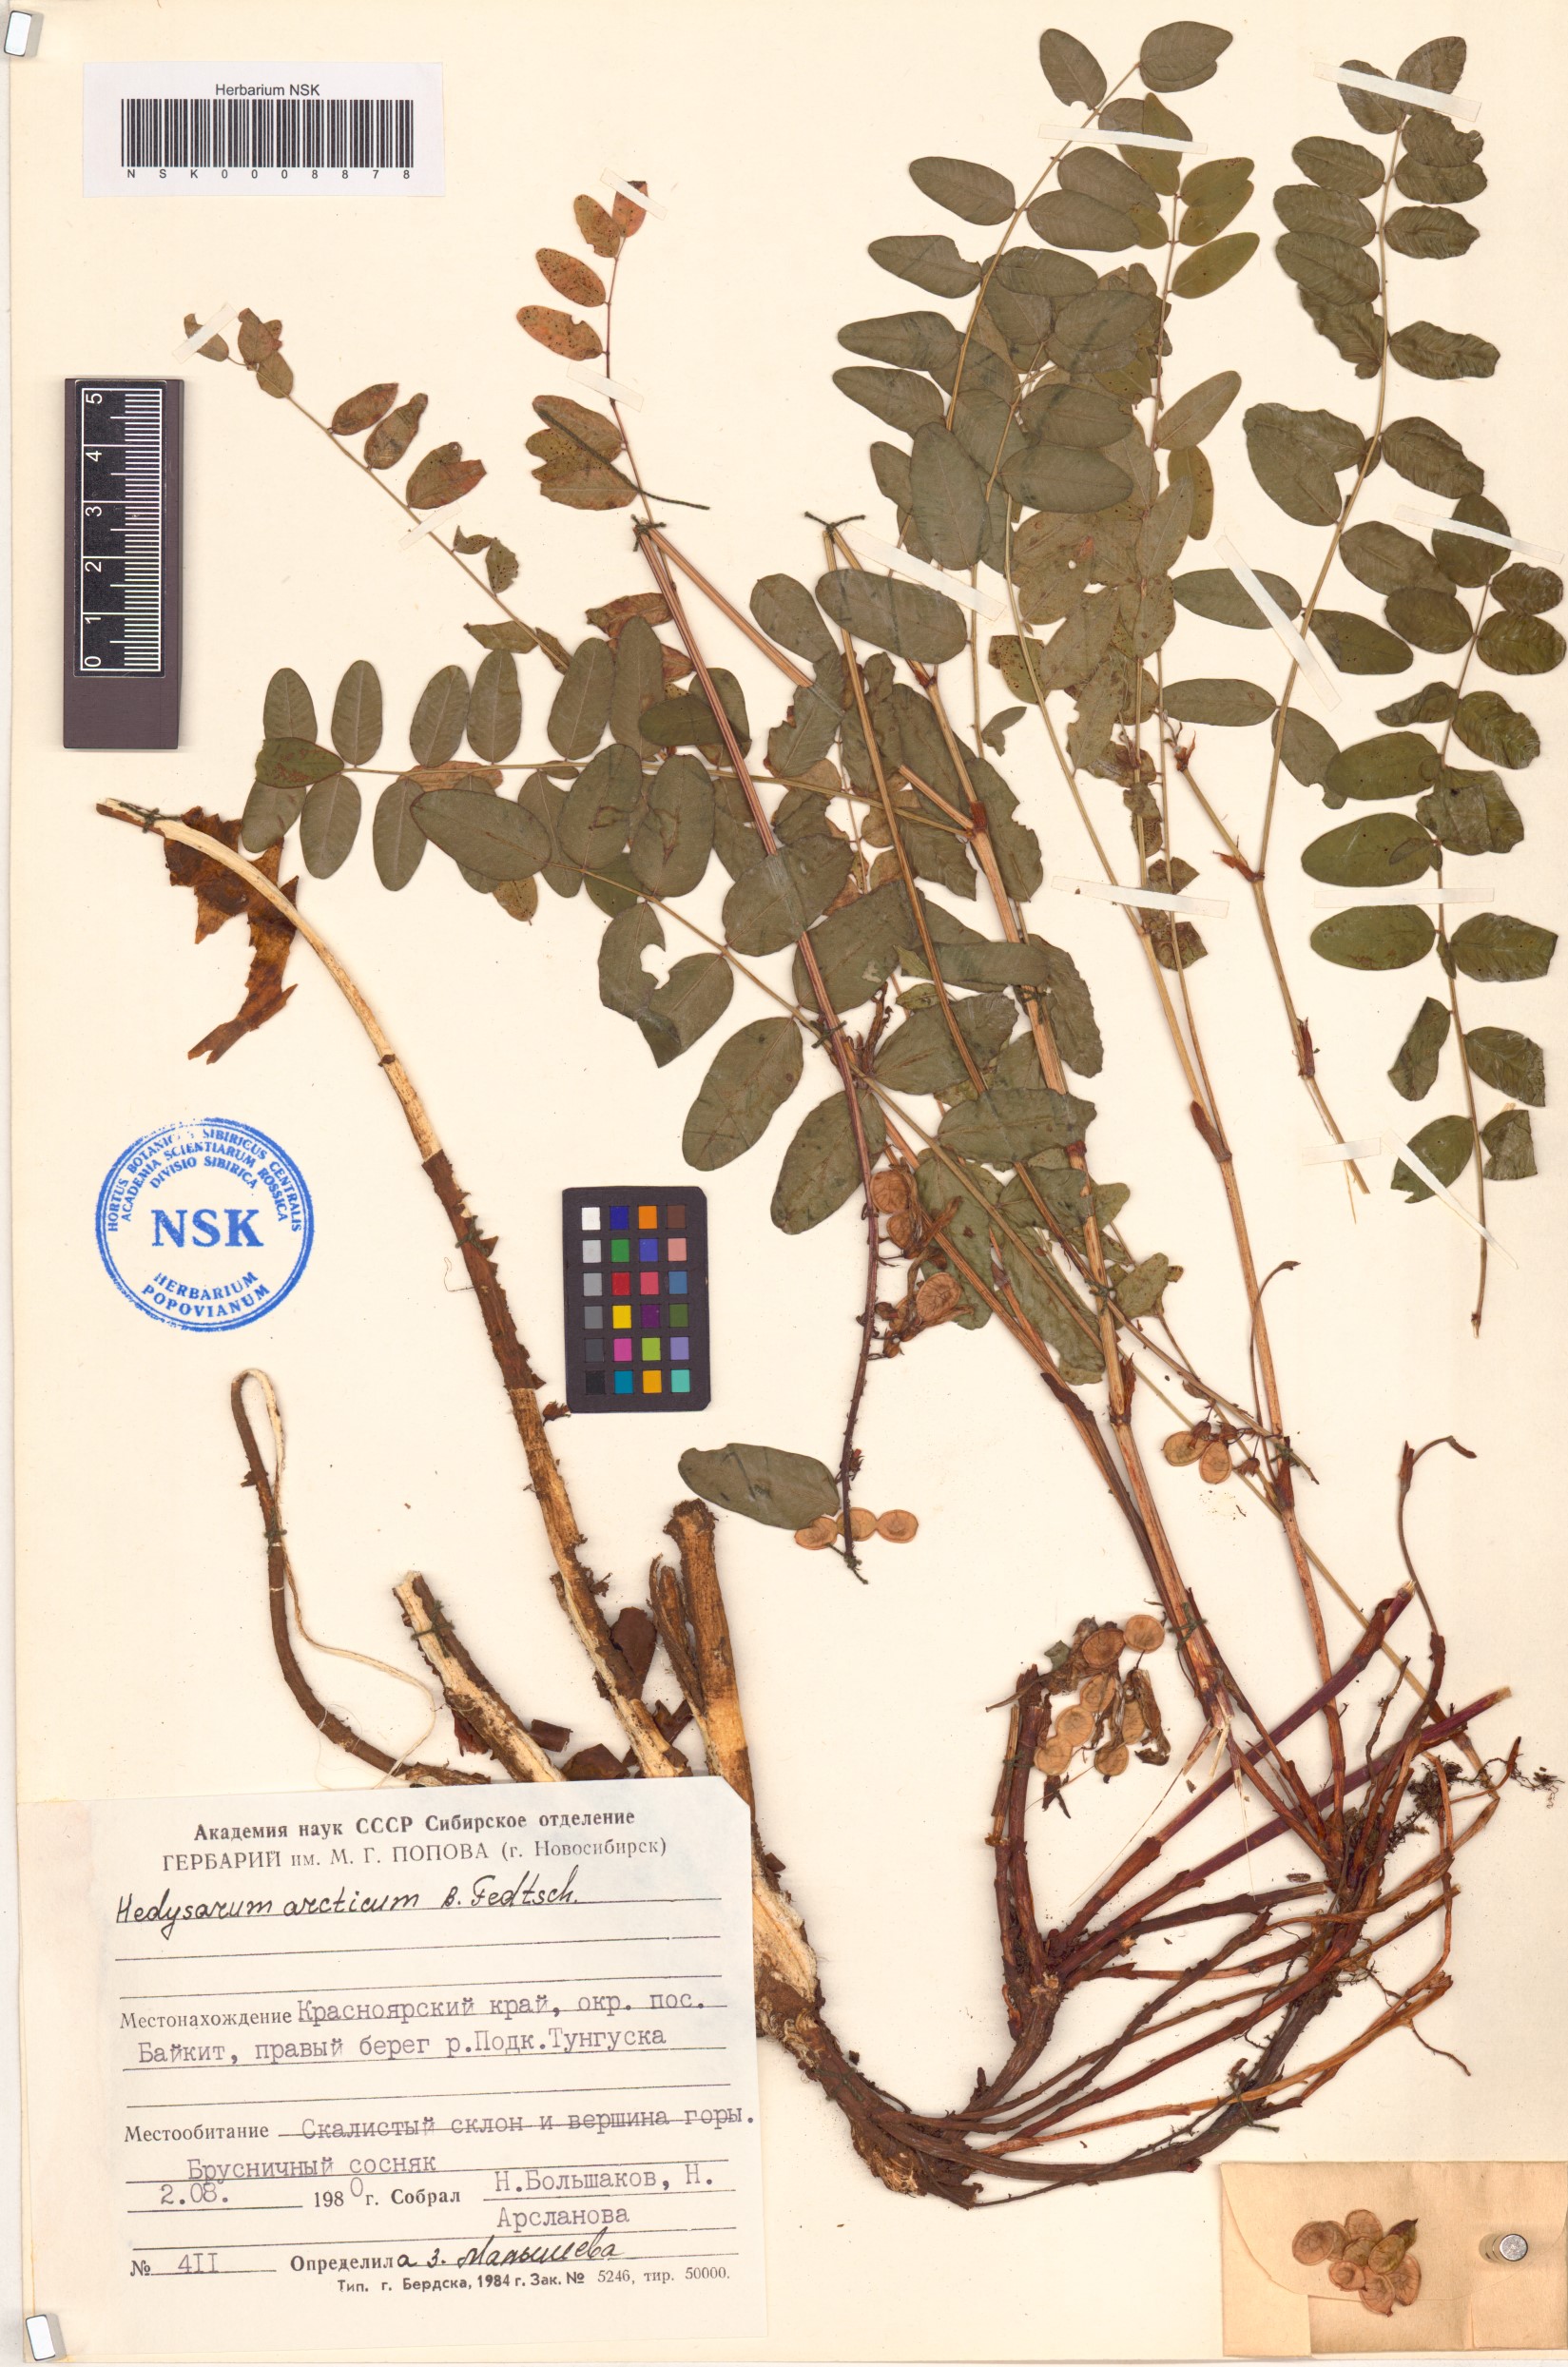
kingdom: Plantae
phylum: Tracheophyta
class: Magnoliopsida
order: Fabales
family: Fabaceae
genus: Hedysarum
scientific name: Hedysarum hedysaroides
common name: Alpine french-honeysuckle
